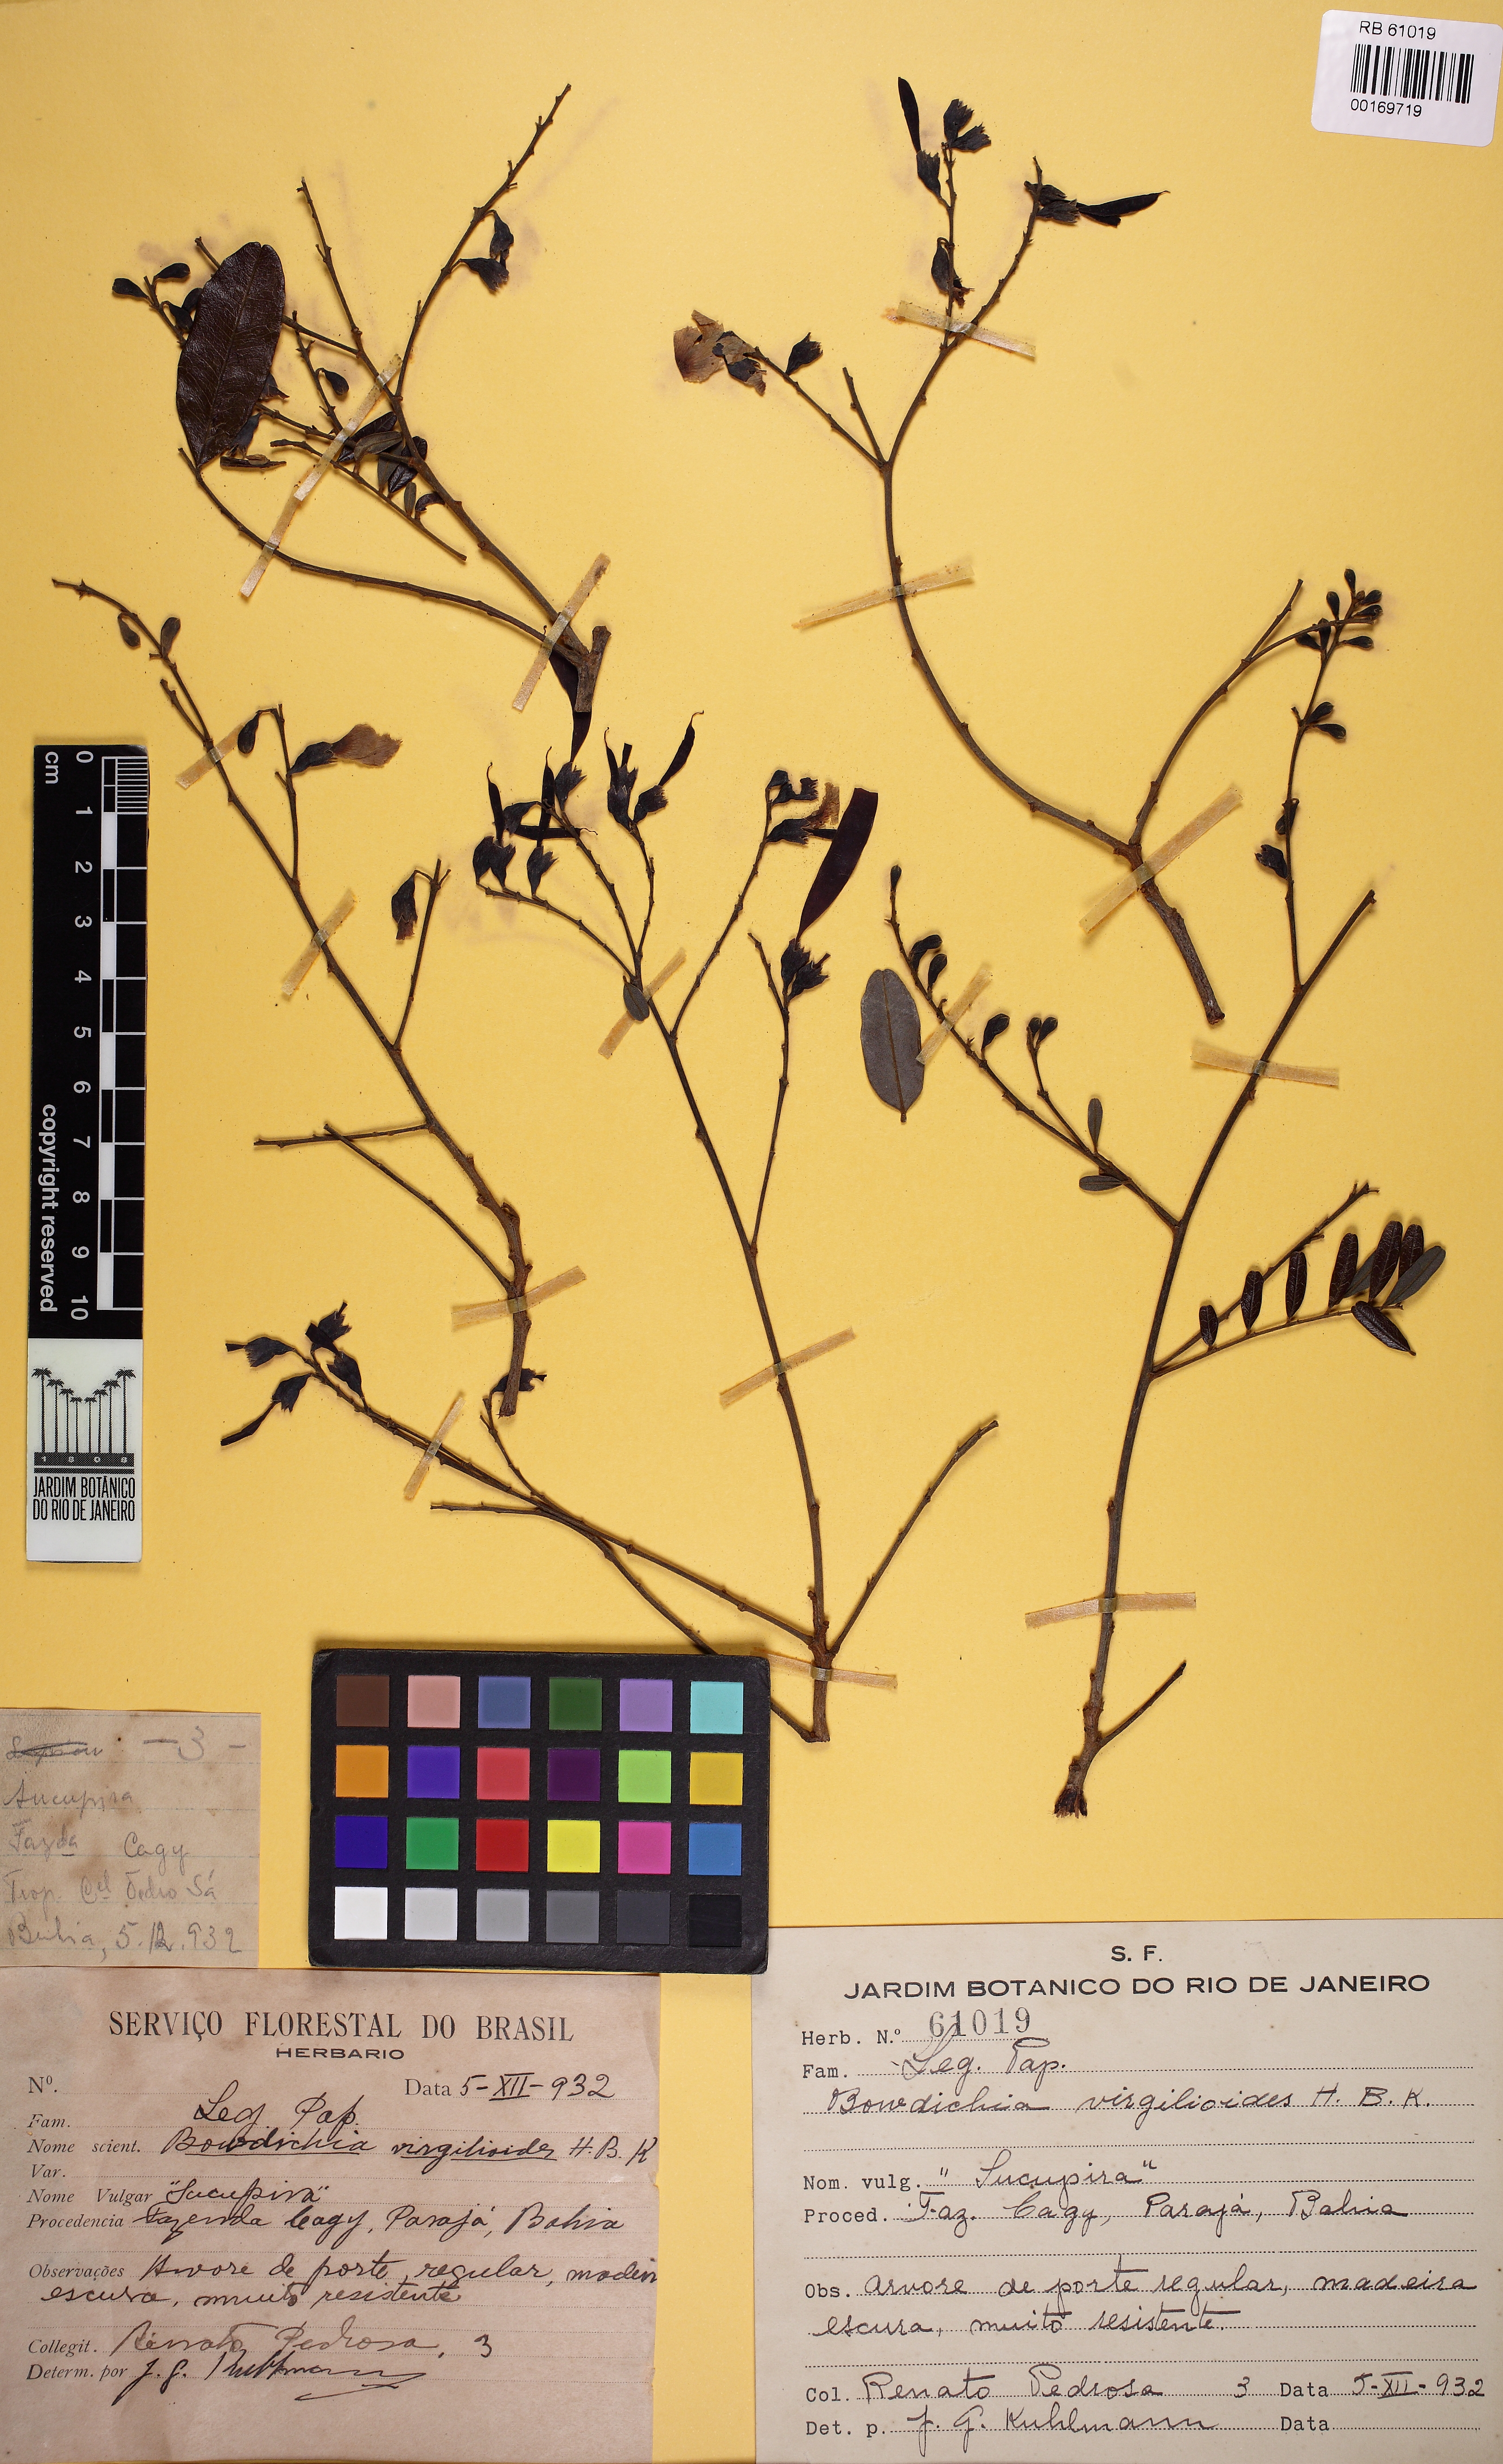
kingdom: Plantae
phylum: Tracheophyta
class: Magnoliopsida
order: Fabales
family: Fabaceae
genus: Bowdichia
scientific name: Bowdichia virgilioides
